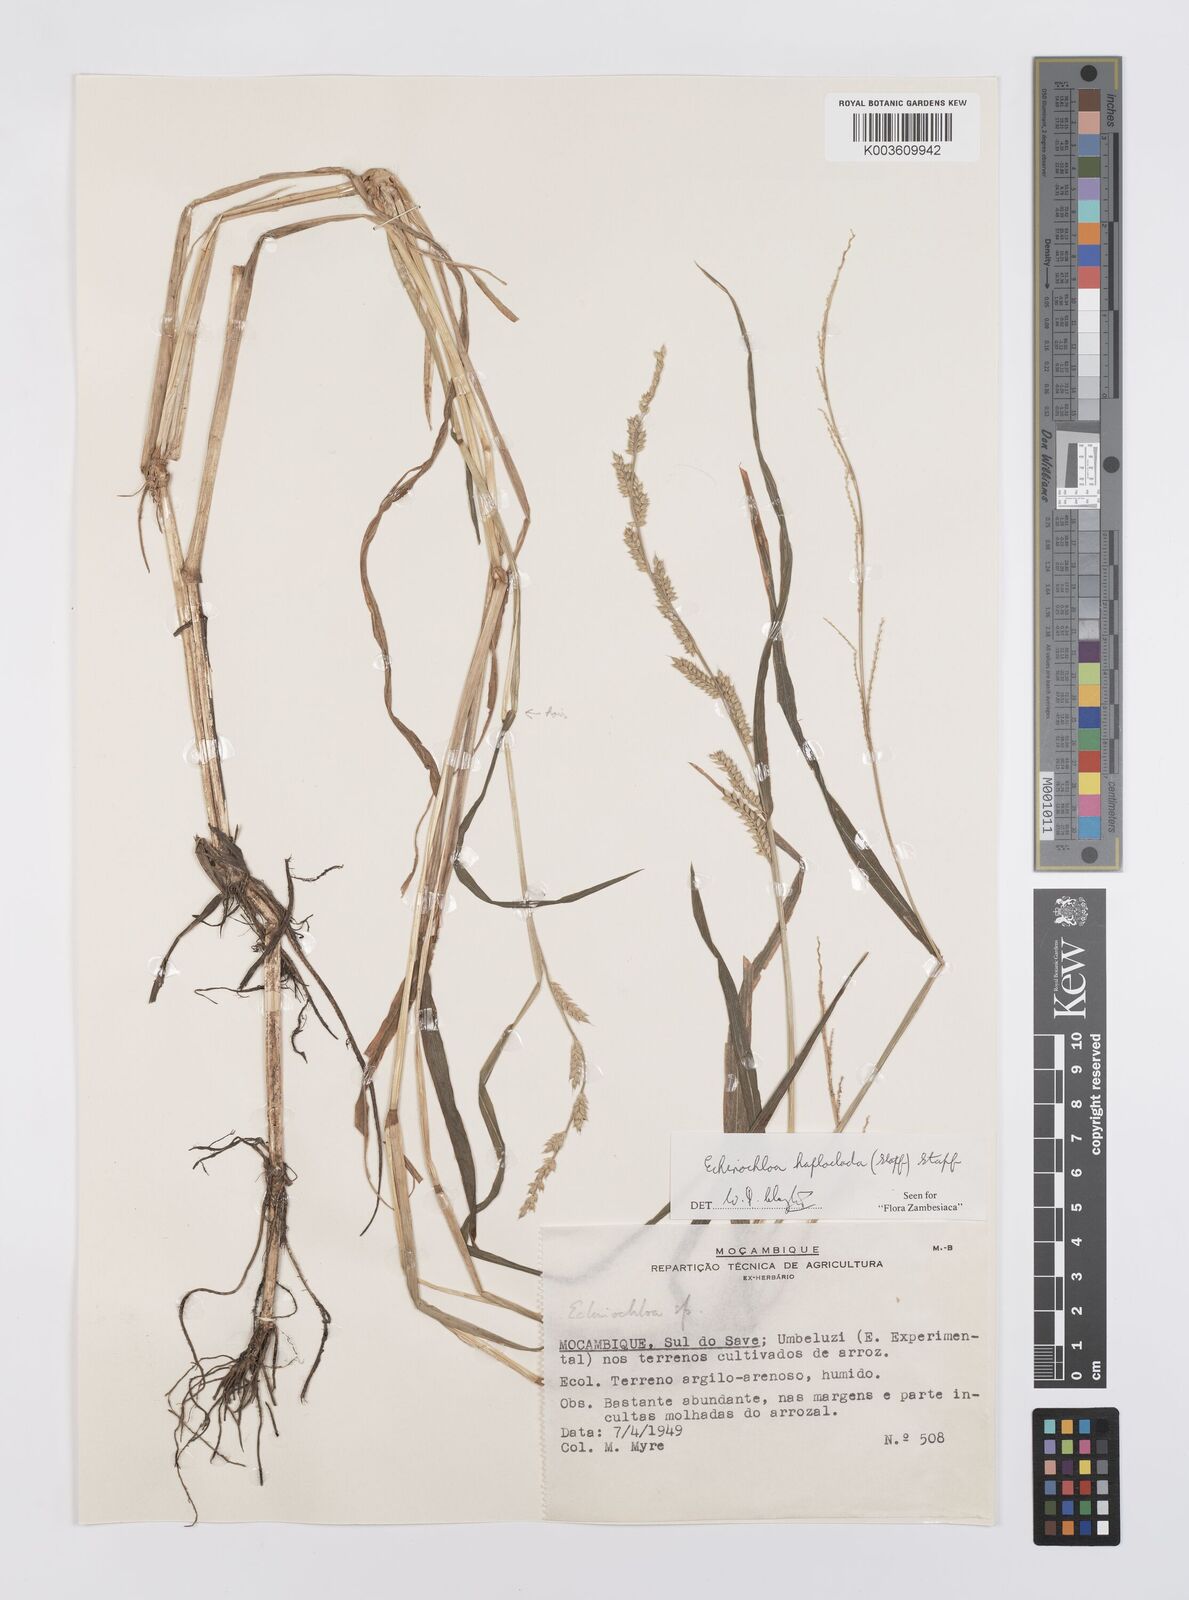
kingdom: Plantae
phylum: Tracheophyta
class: Liliopsida
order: Poales
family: Poaceae
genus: Echinochloa
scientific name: Echinochloa haploclada
